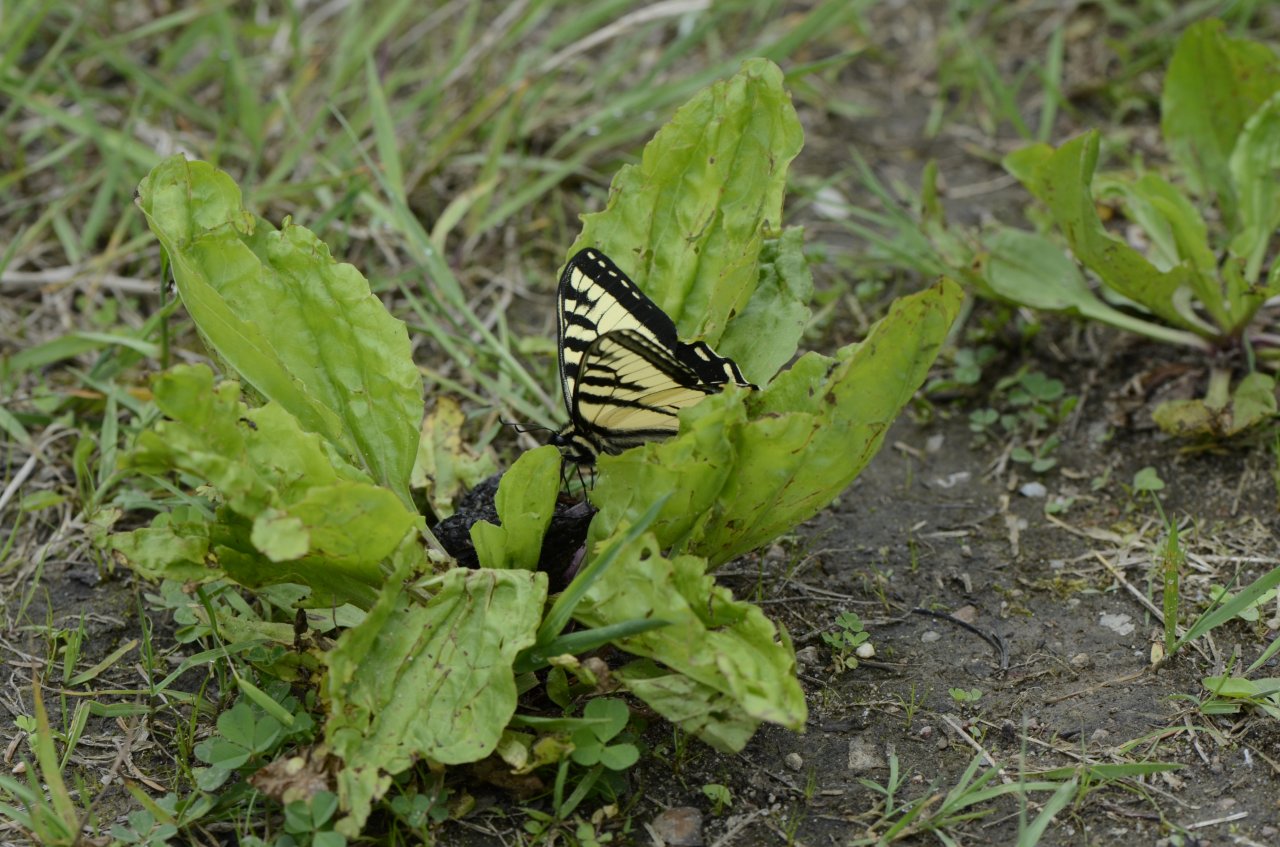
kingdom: Animalia
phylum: Arthropoda
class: Insecta
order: Lepidoptera
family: Papilionidae
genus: Pterourus
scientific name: Pterourus canadensis
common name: Canadian Tiger Swallowtail
